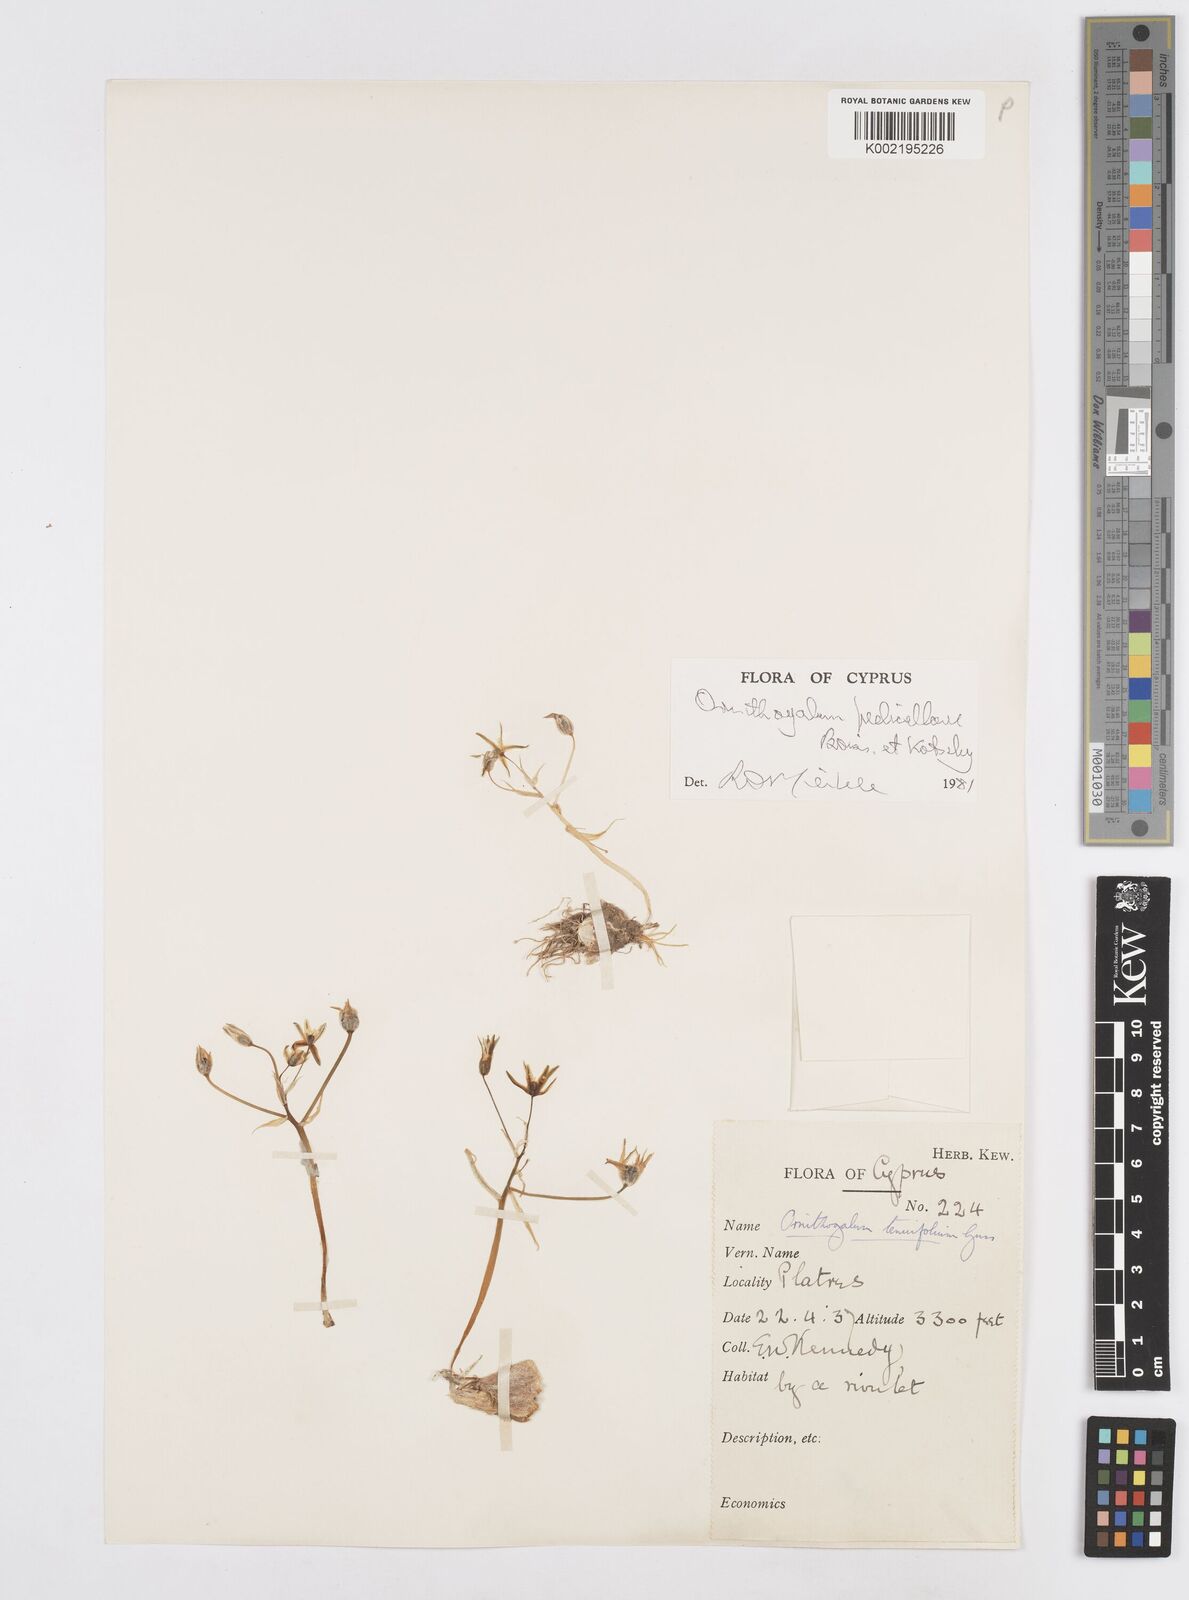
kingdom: Plantae
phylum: Tracheophyta
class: Liliopsida
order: Asparagales
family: Asparagaceae
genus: Ornithogalum
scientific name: Ornithogalum pedicellare
